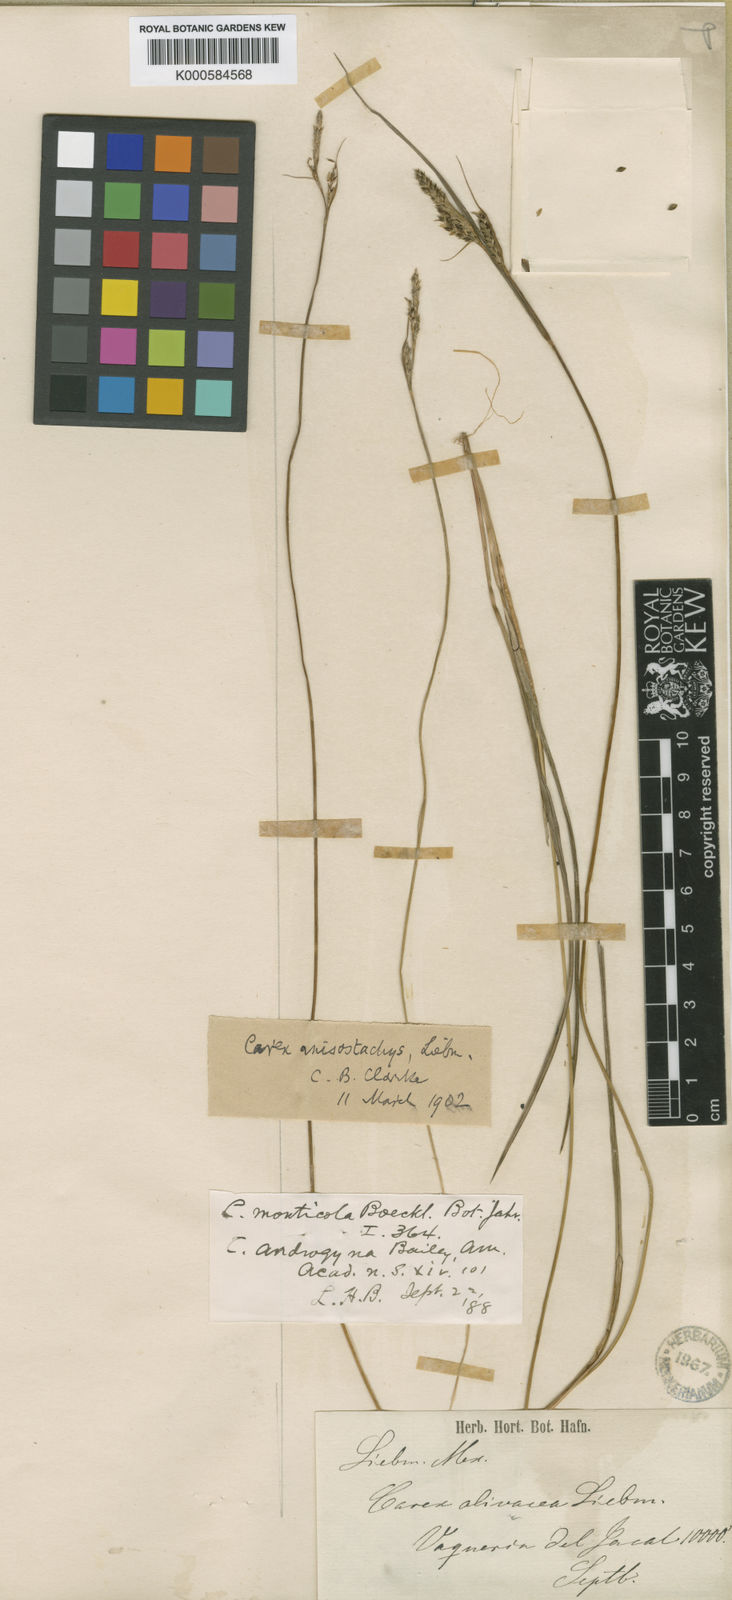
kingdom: Plantae
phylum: Tracheophyta
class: Liliopsida
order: Poales
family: Cyperaceae
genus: Carex
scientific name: Carex anisostachys
